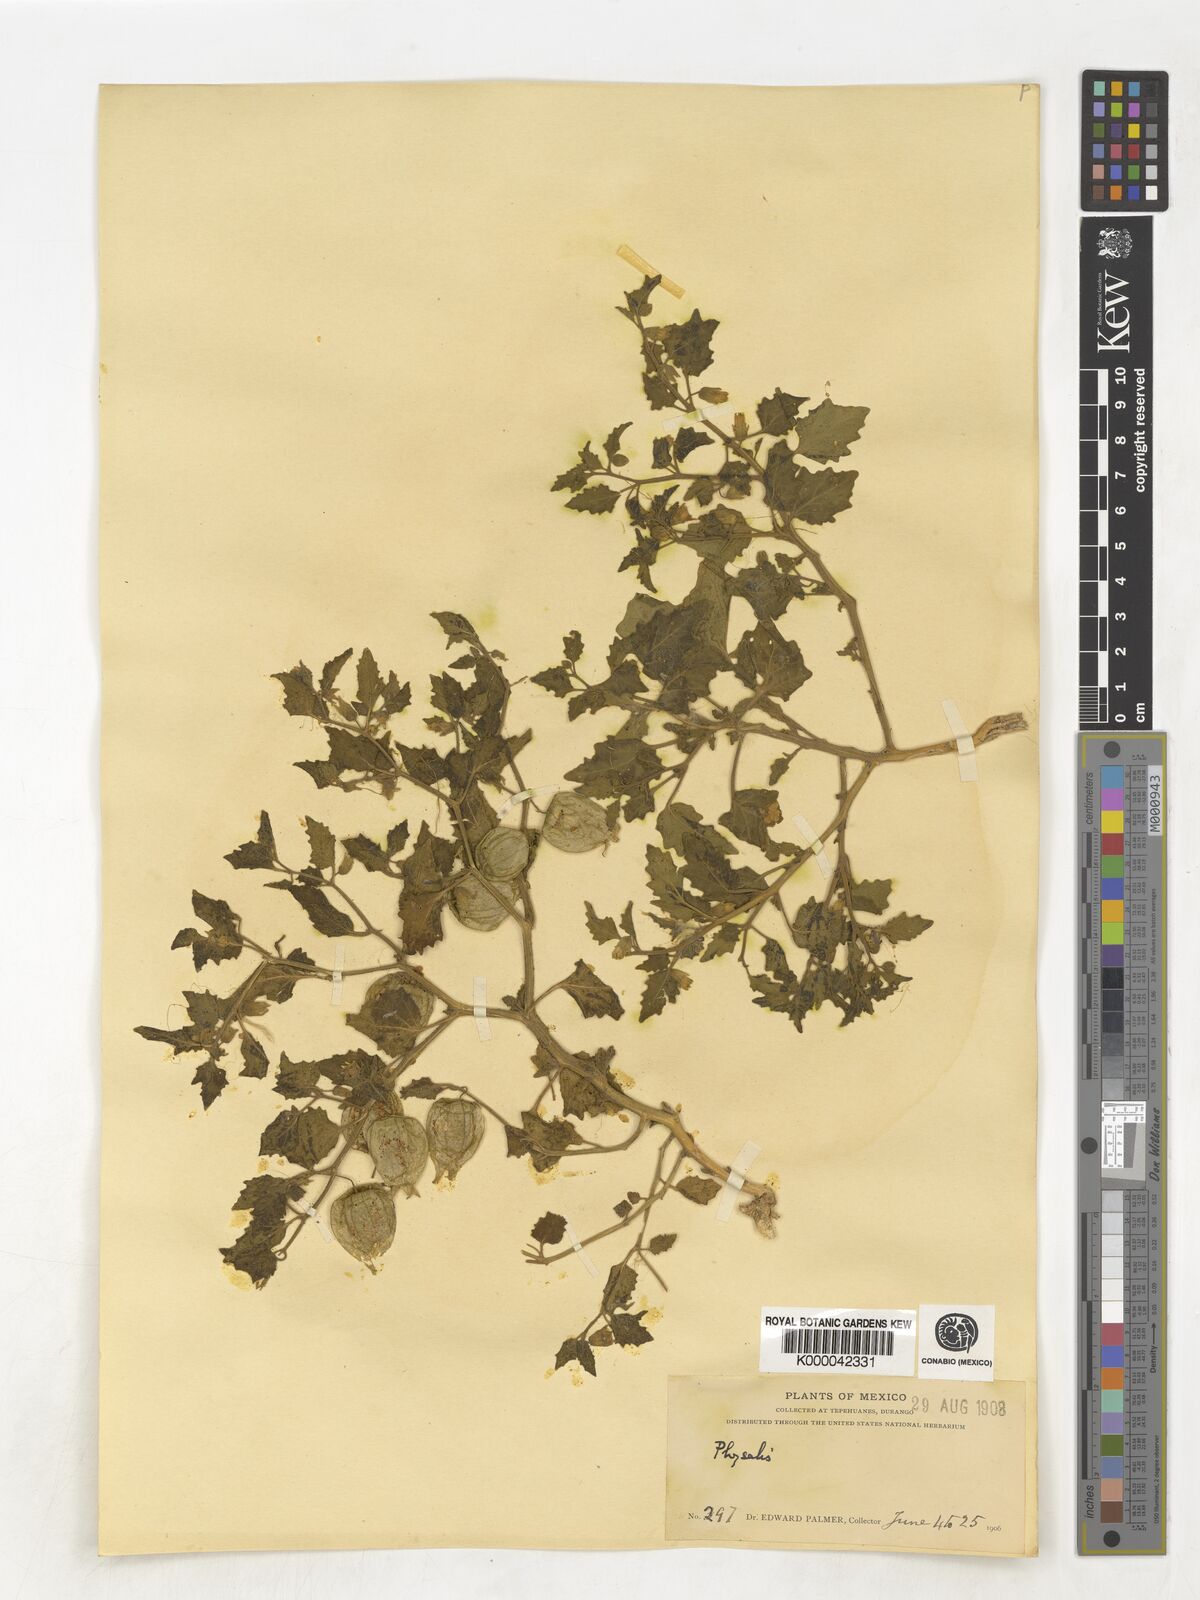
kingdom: Plantae
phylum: Tracheophyta
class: Magnoliopsida
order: Solanales
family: Solanaceae
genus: Physalis
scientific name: Physalis
